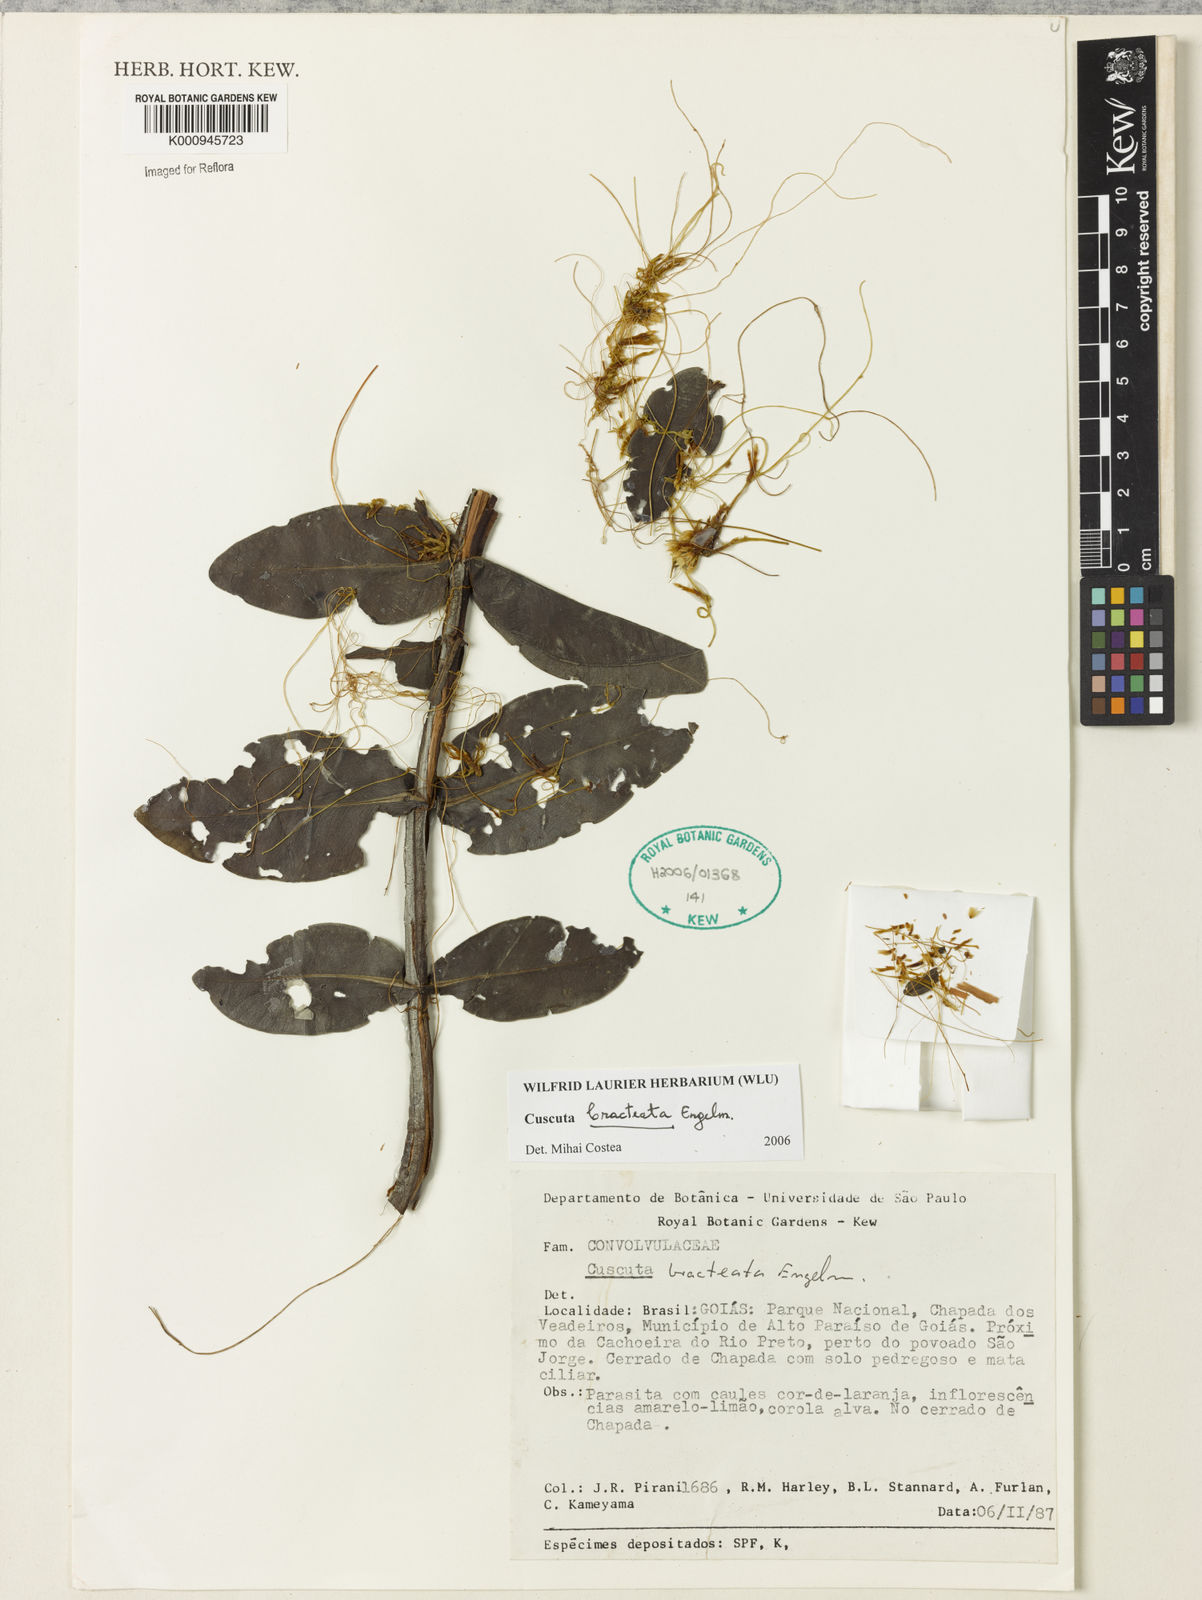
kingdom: Plantae
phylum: Tracheophyta
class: Magnoliopsida
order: Solanales
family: Convolvulaceae
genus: Cuscuta
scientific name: Cuscuta bracteata
